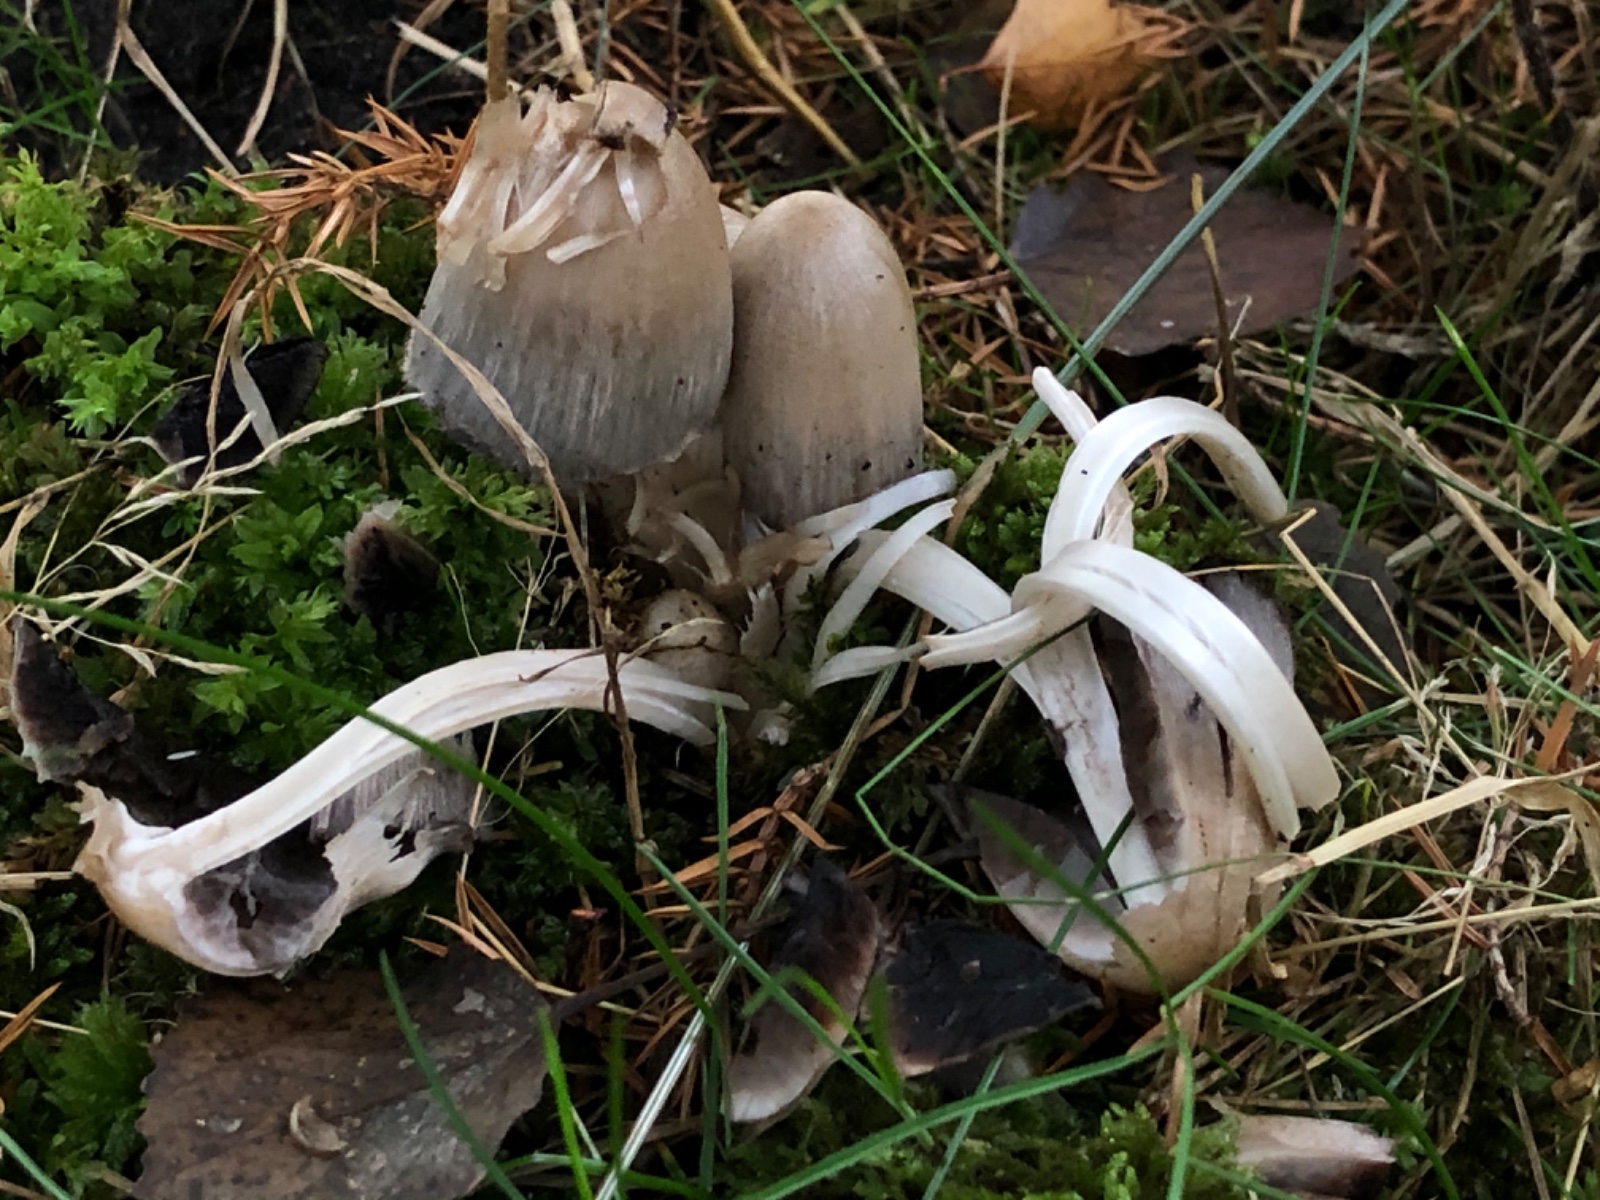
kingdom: Fungi
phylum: Basidiomycota
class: Agaricomycetes
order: Agaricales
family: Psathyrellaceae
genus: Coprinopsis
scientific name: Coprinopsis atramentaria
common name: almindelig blækhat
